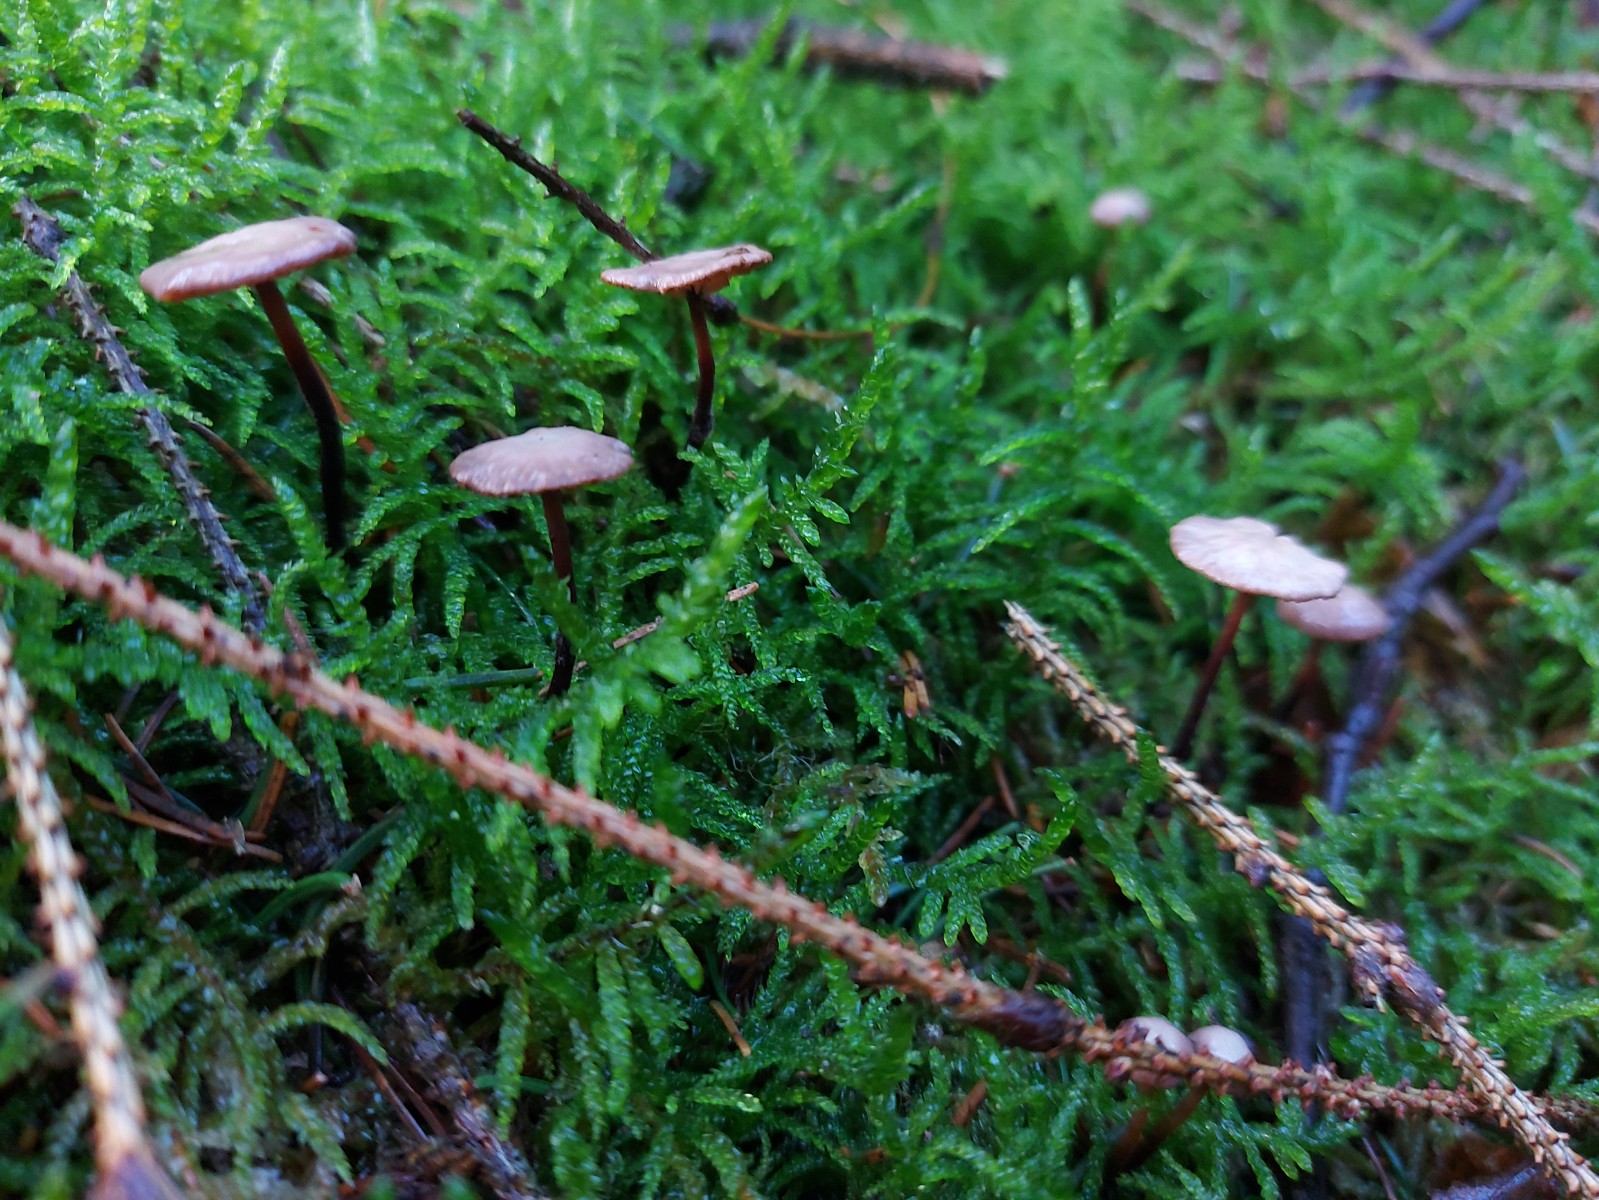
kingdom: Fungi
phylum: Basidiomycota
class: Agaricomycetes
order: Agaricales
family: Omphalotaceae
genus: Paragymnopus
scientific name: Paragymnopus perforans
